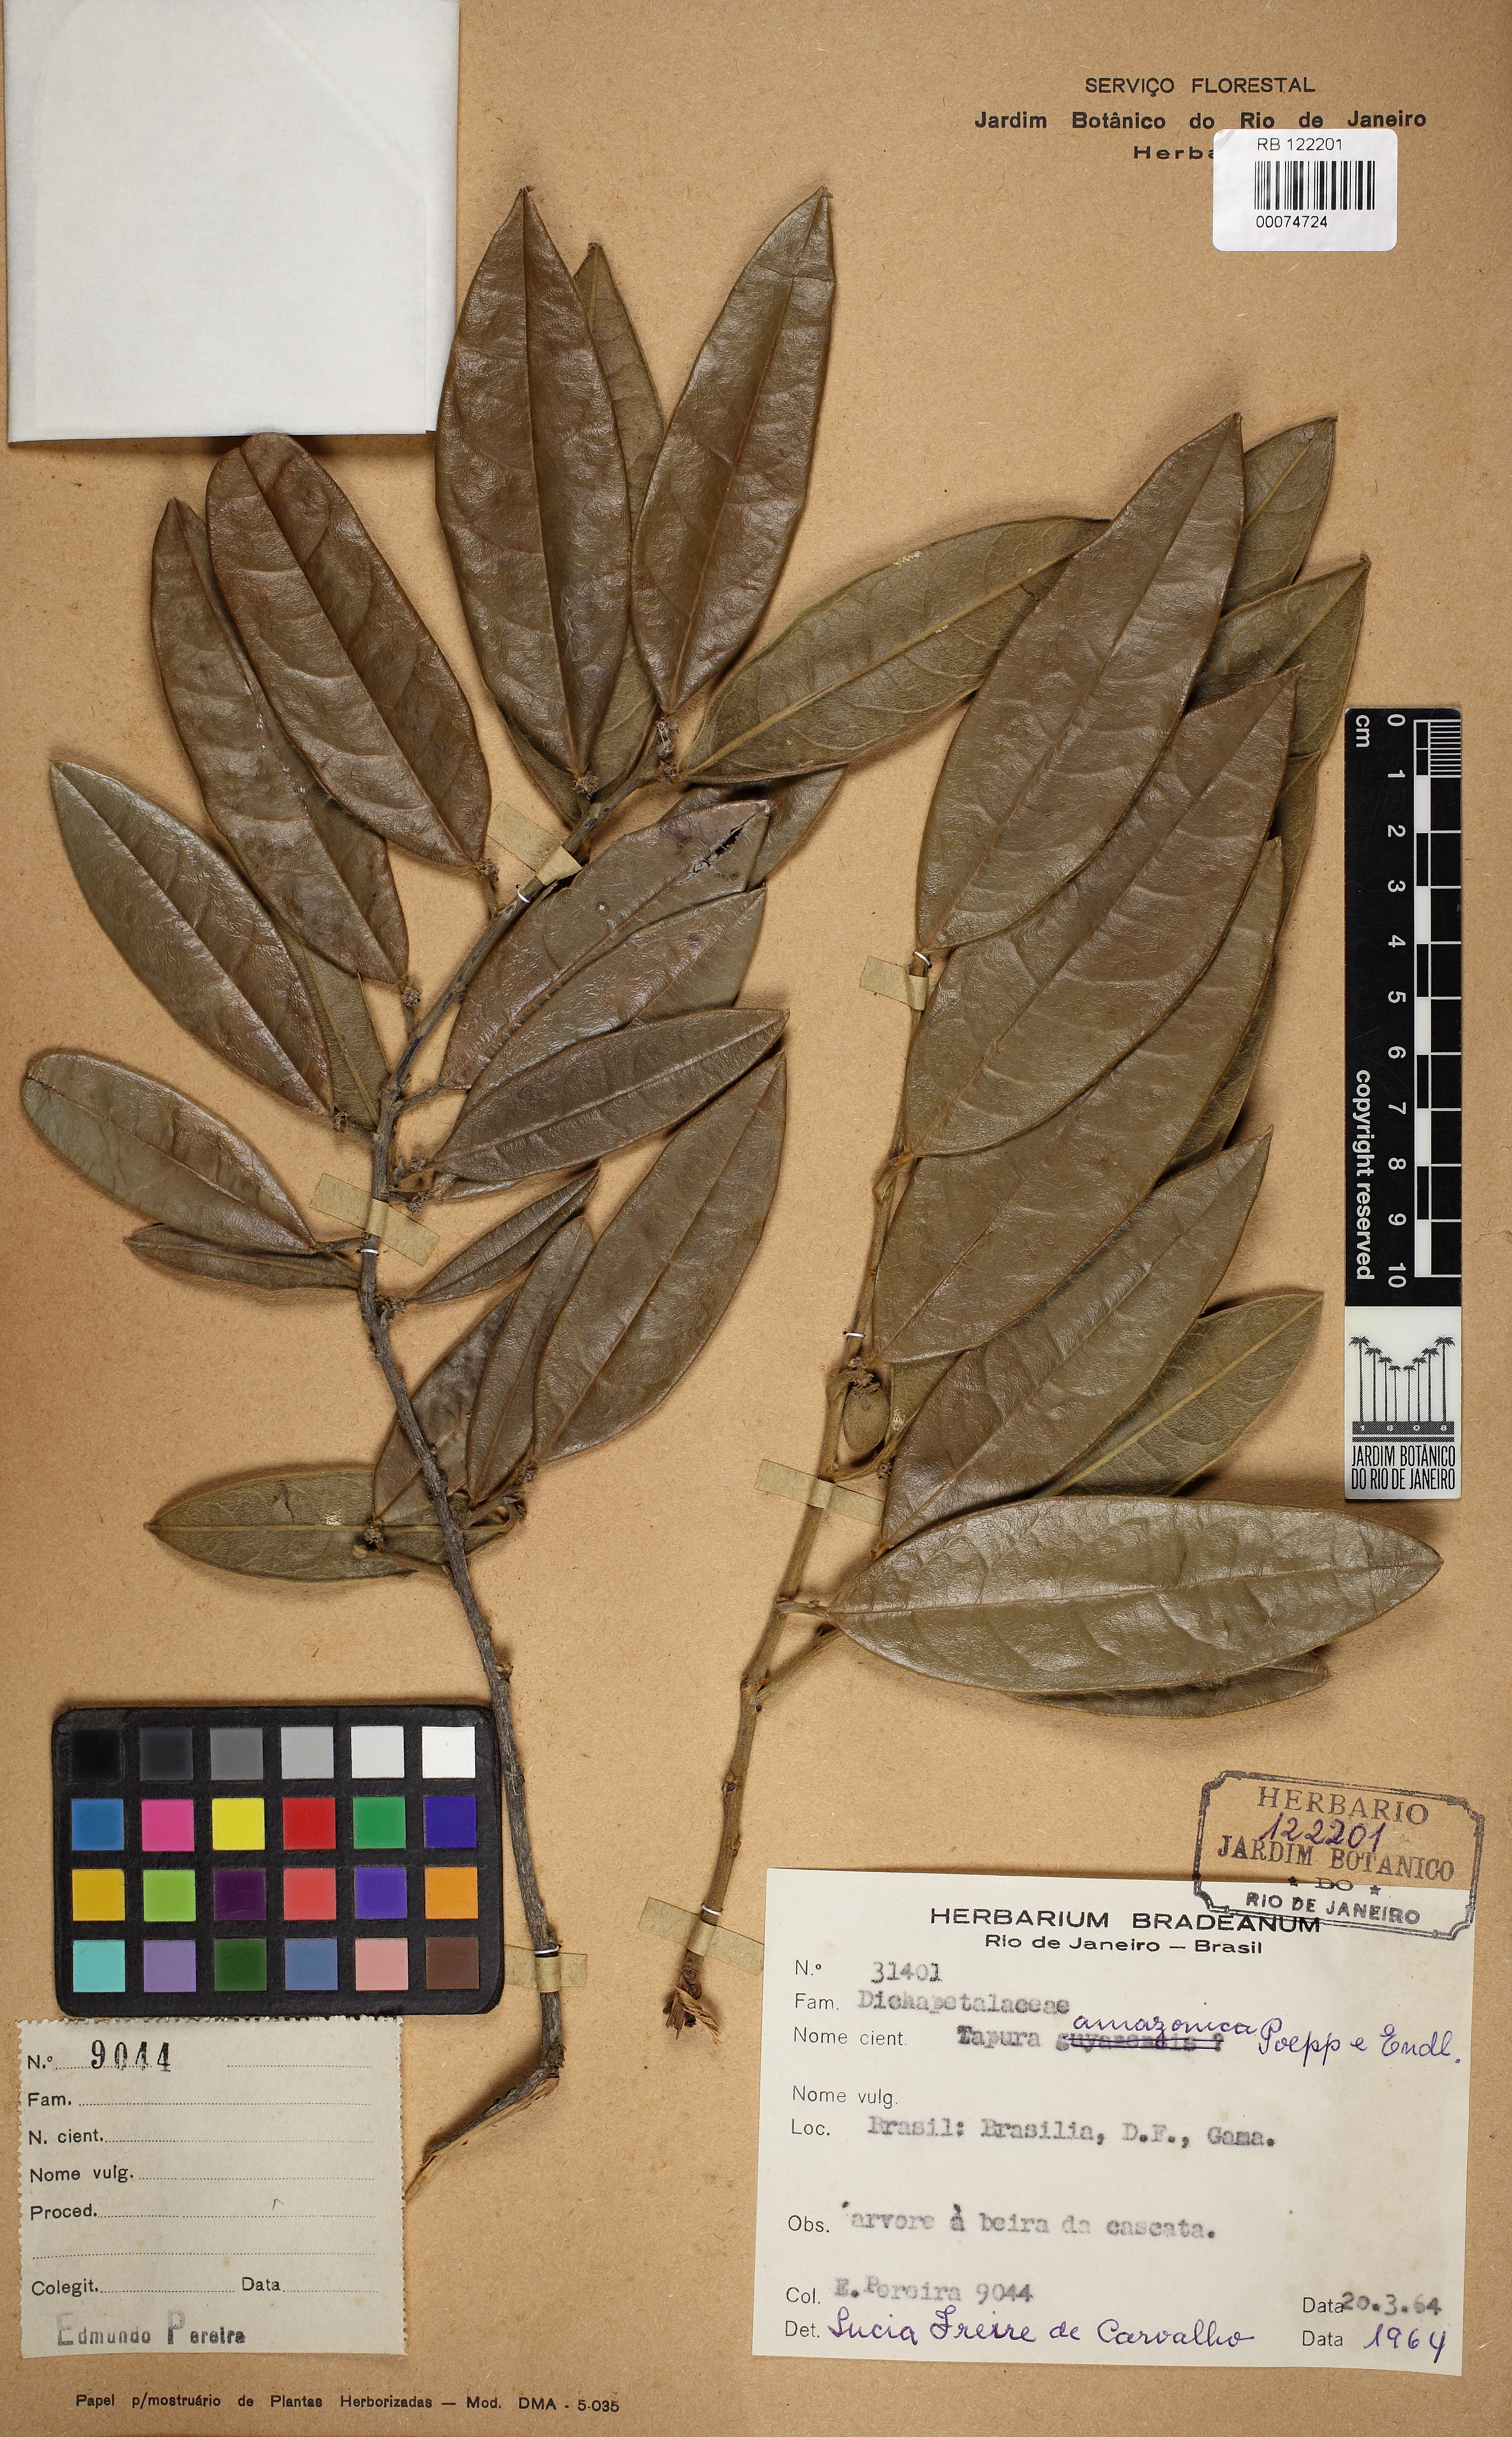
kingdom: Plantae
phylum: Tracheophyta
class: Magnoliopsida
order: Malpighiales
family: Dichapetalaceae
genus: Tapura
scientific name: Tapura amazonica
